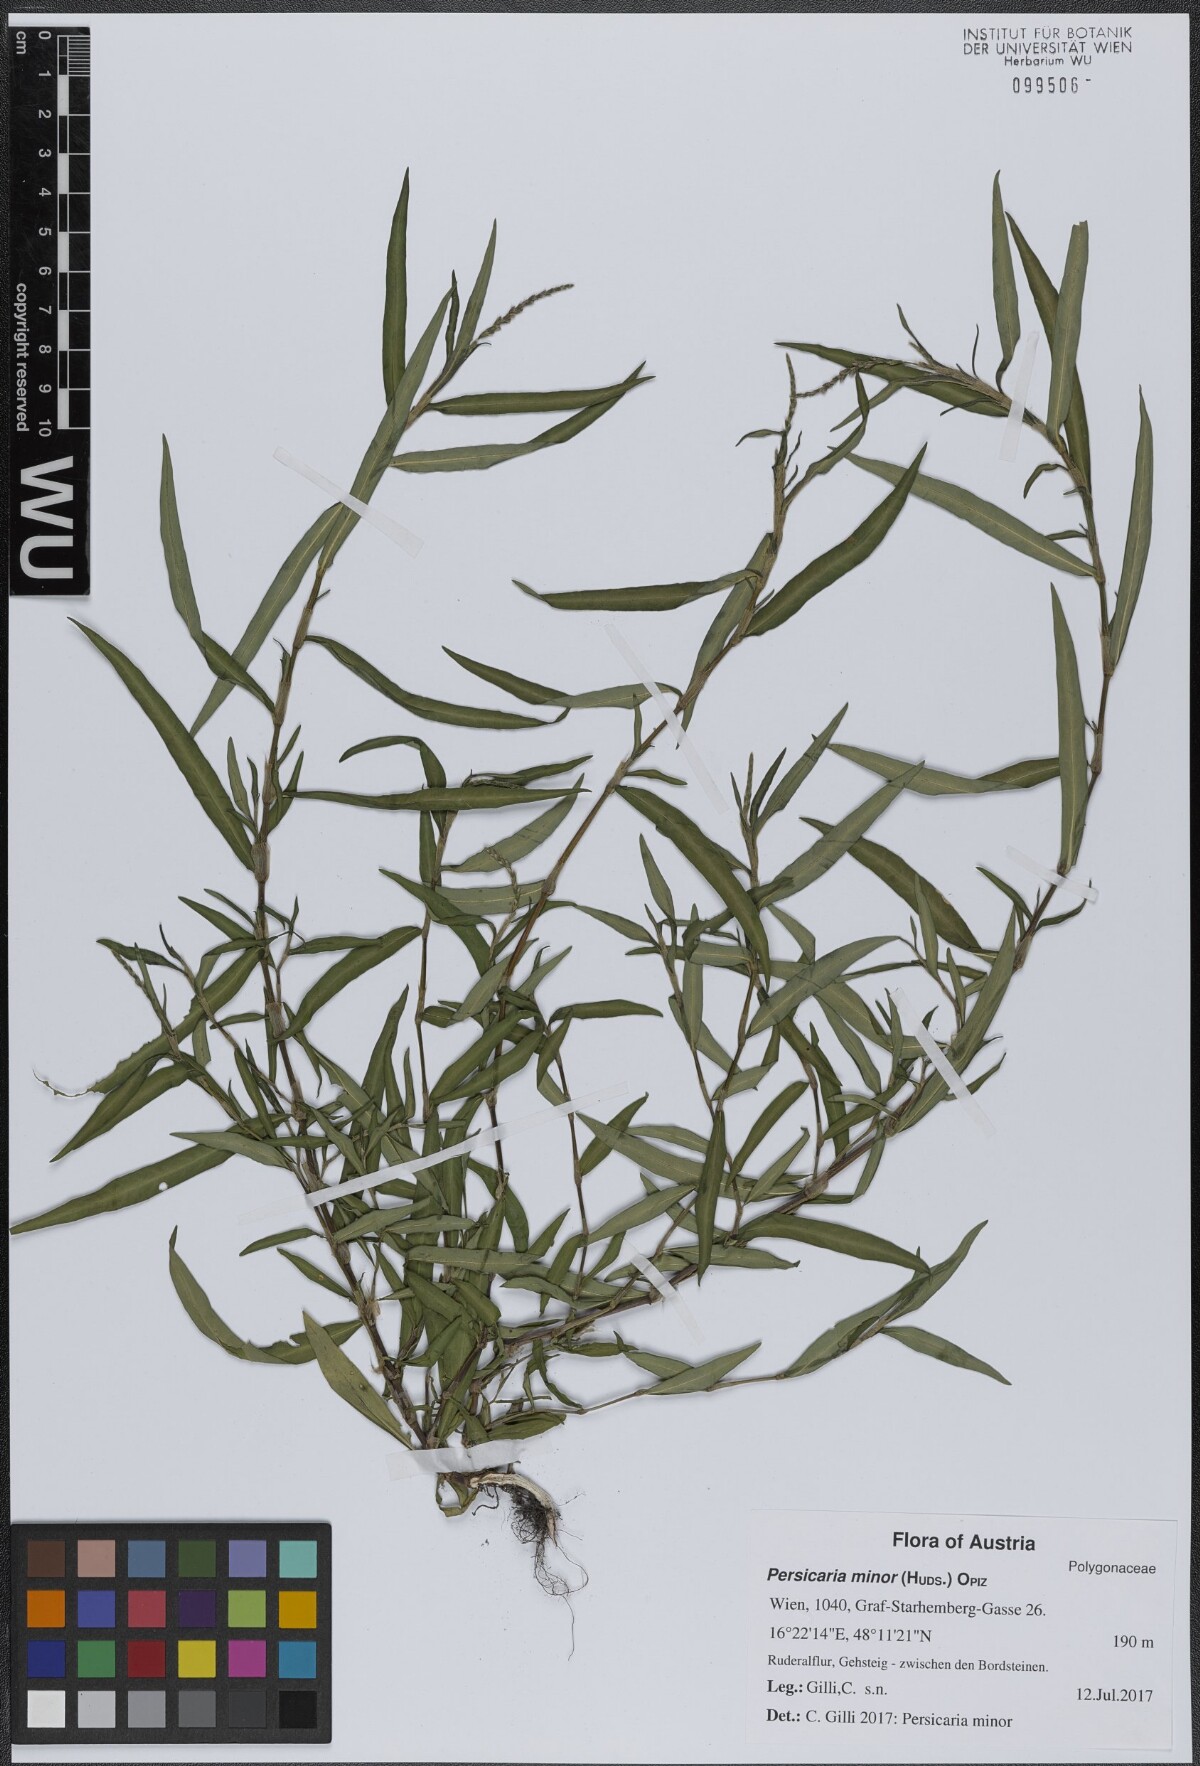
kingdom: Plantae
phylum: Tracheophyta
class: Magnoliopsida
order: Caryophyllales
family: Polygonaceae
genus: Persicaria
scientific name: Persicaria minor
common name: Small water-pepper
